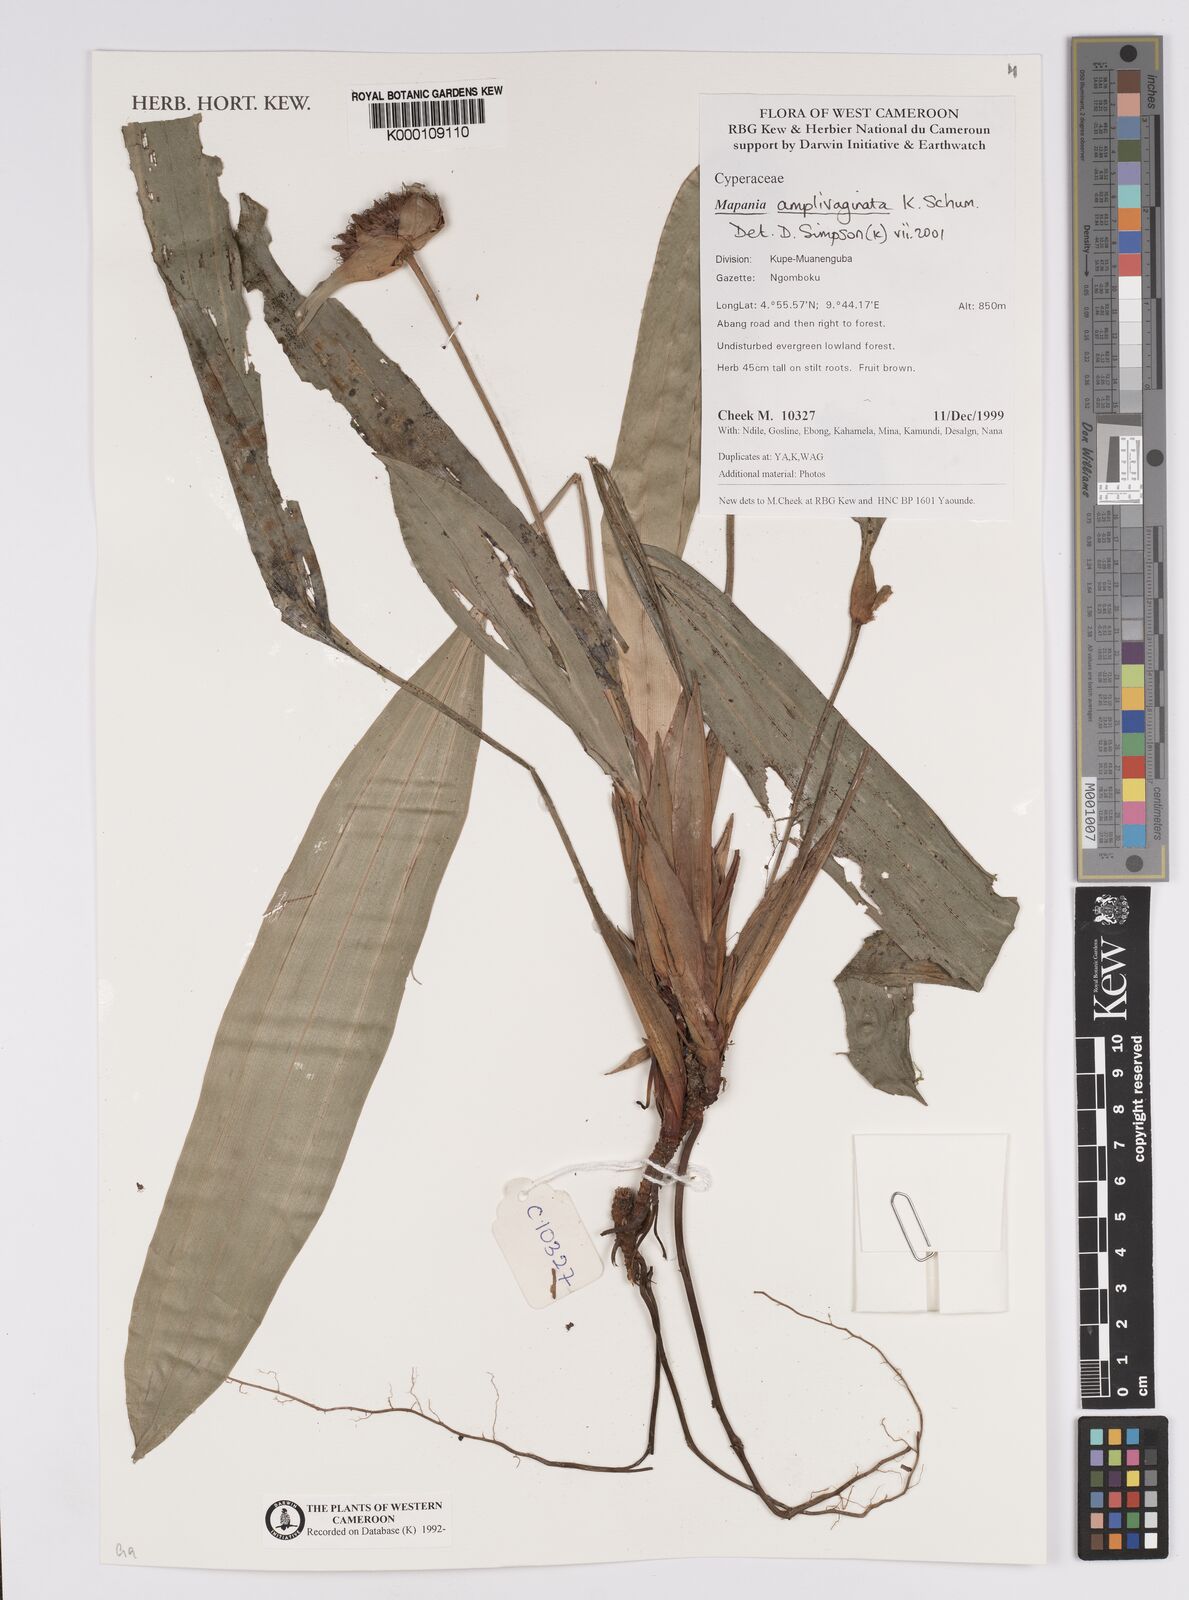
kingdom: Plantae
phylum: Tracheophyta
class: Liliopsida
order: Poales
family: Cyperaceae
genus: Mapania
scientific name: Mapania amplivaginata
